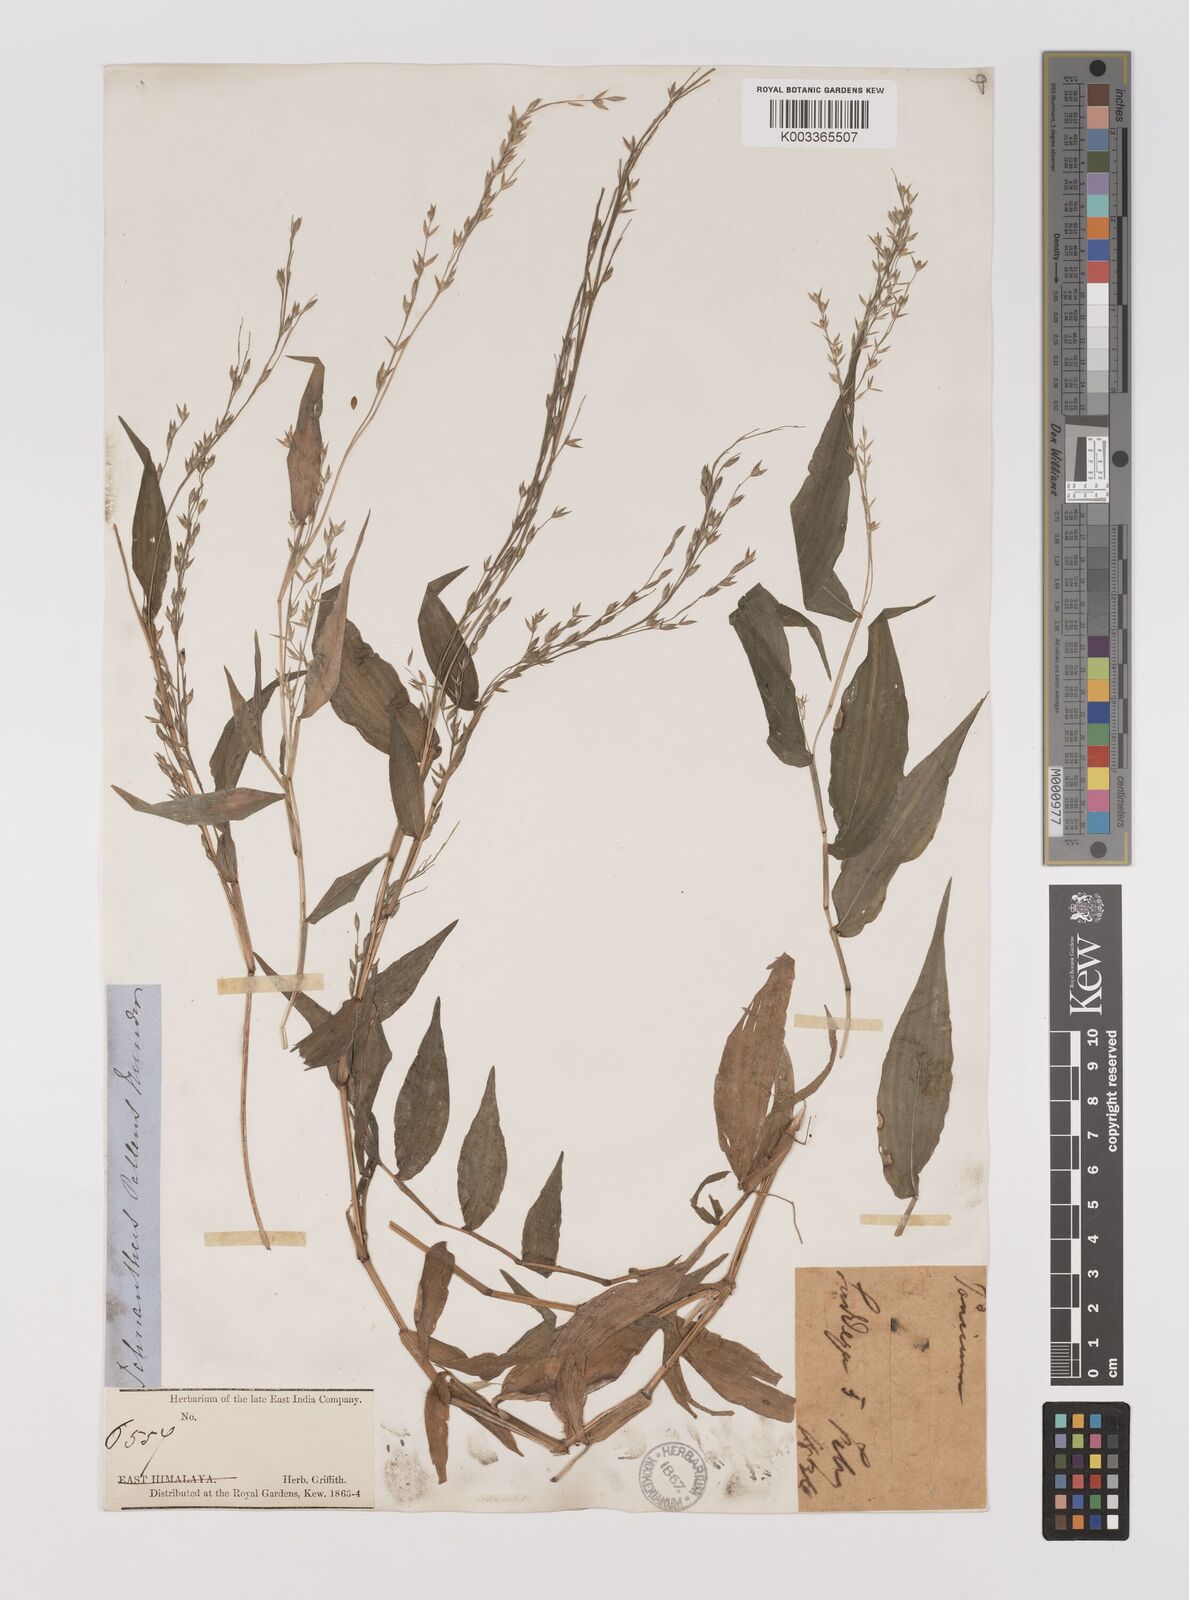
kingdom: Plantae
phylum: Tracheophyta
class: Liliopsida
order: Poales
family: Poaceae
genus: Ichnanthus
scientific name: Ichnanthus pallens
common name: Water grass
